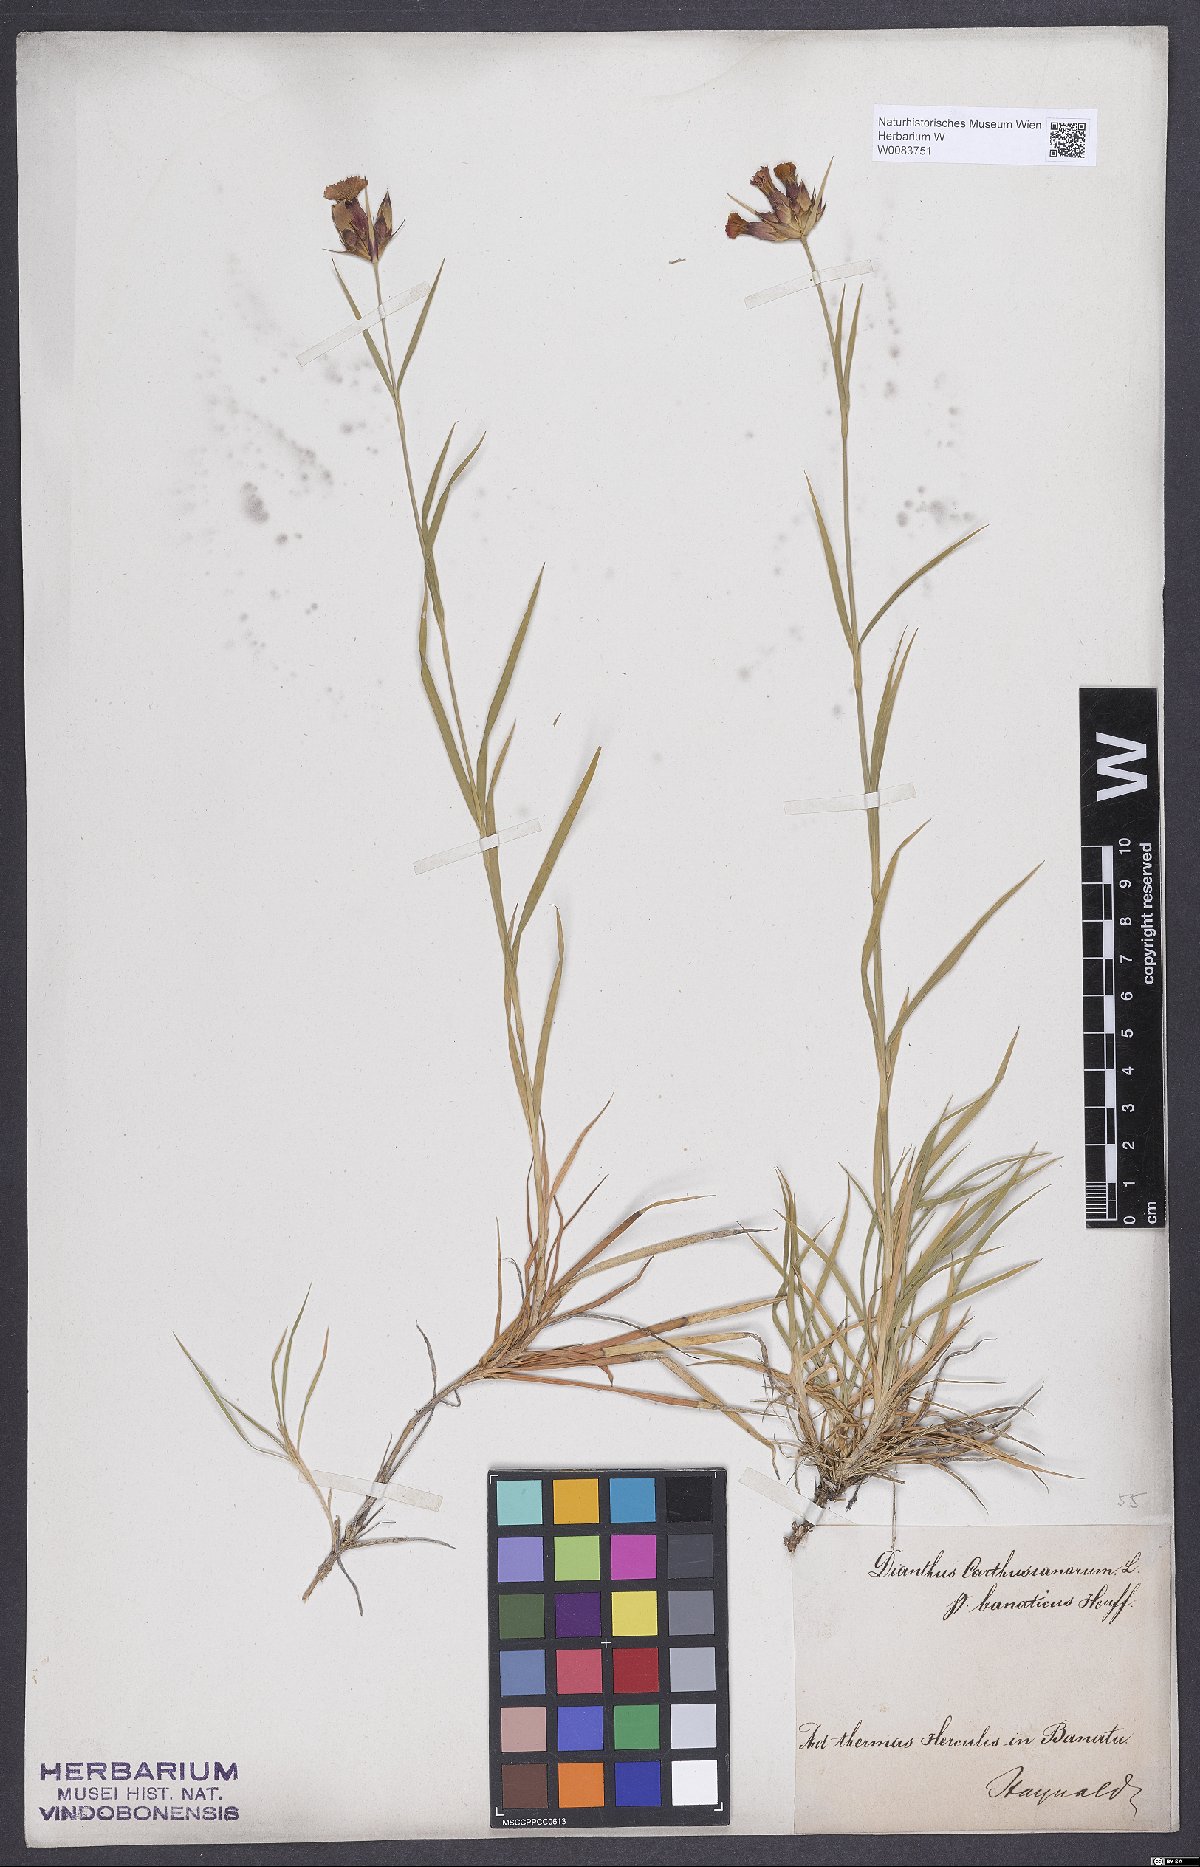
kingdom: Plantae
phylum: Tracheophyta
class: Magnoliopsida
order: Caryophyllales
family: Caryophyllaceae
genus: Dianthus
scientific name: Dianthus giganteus
